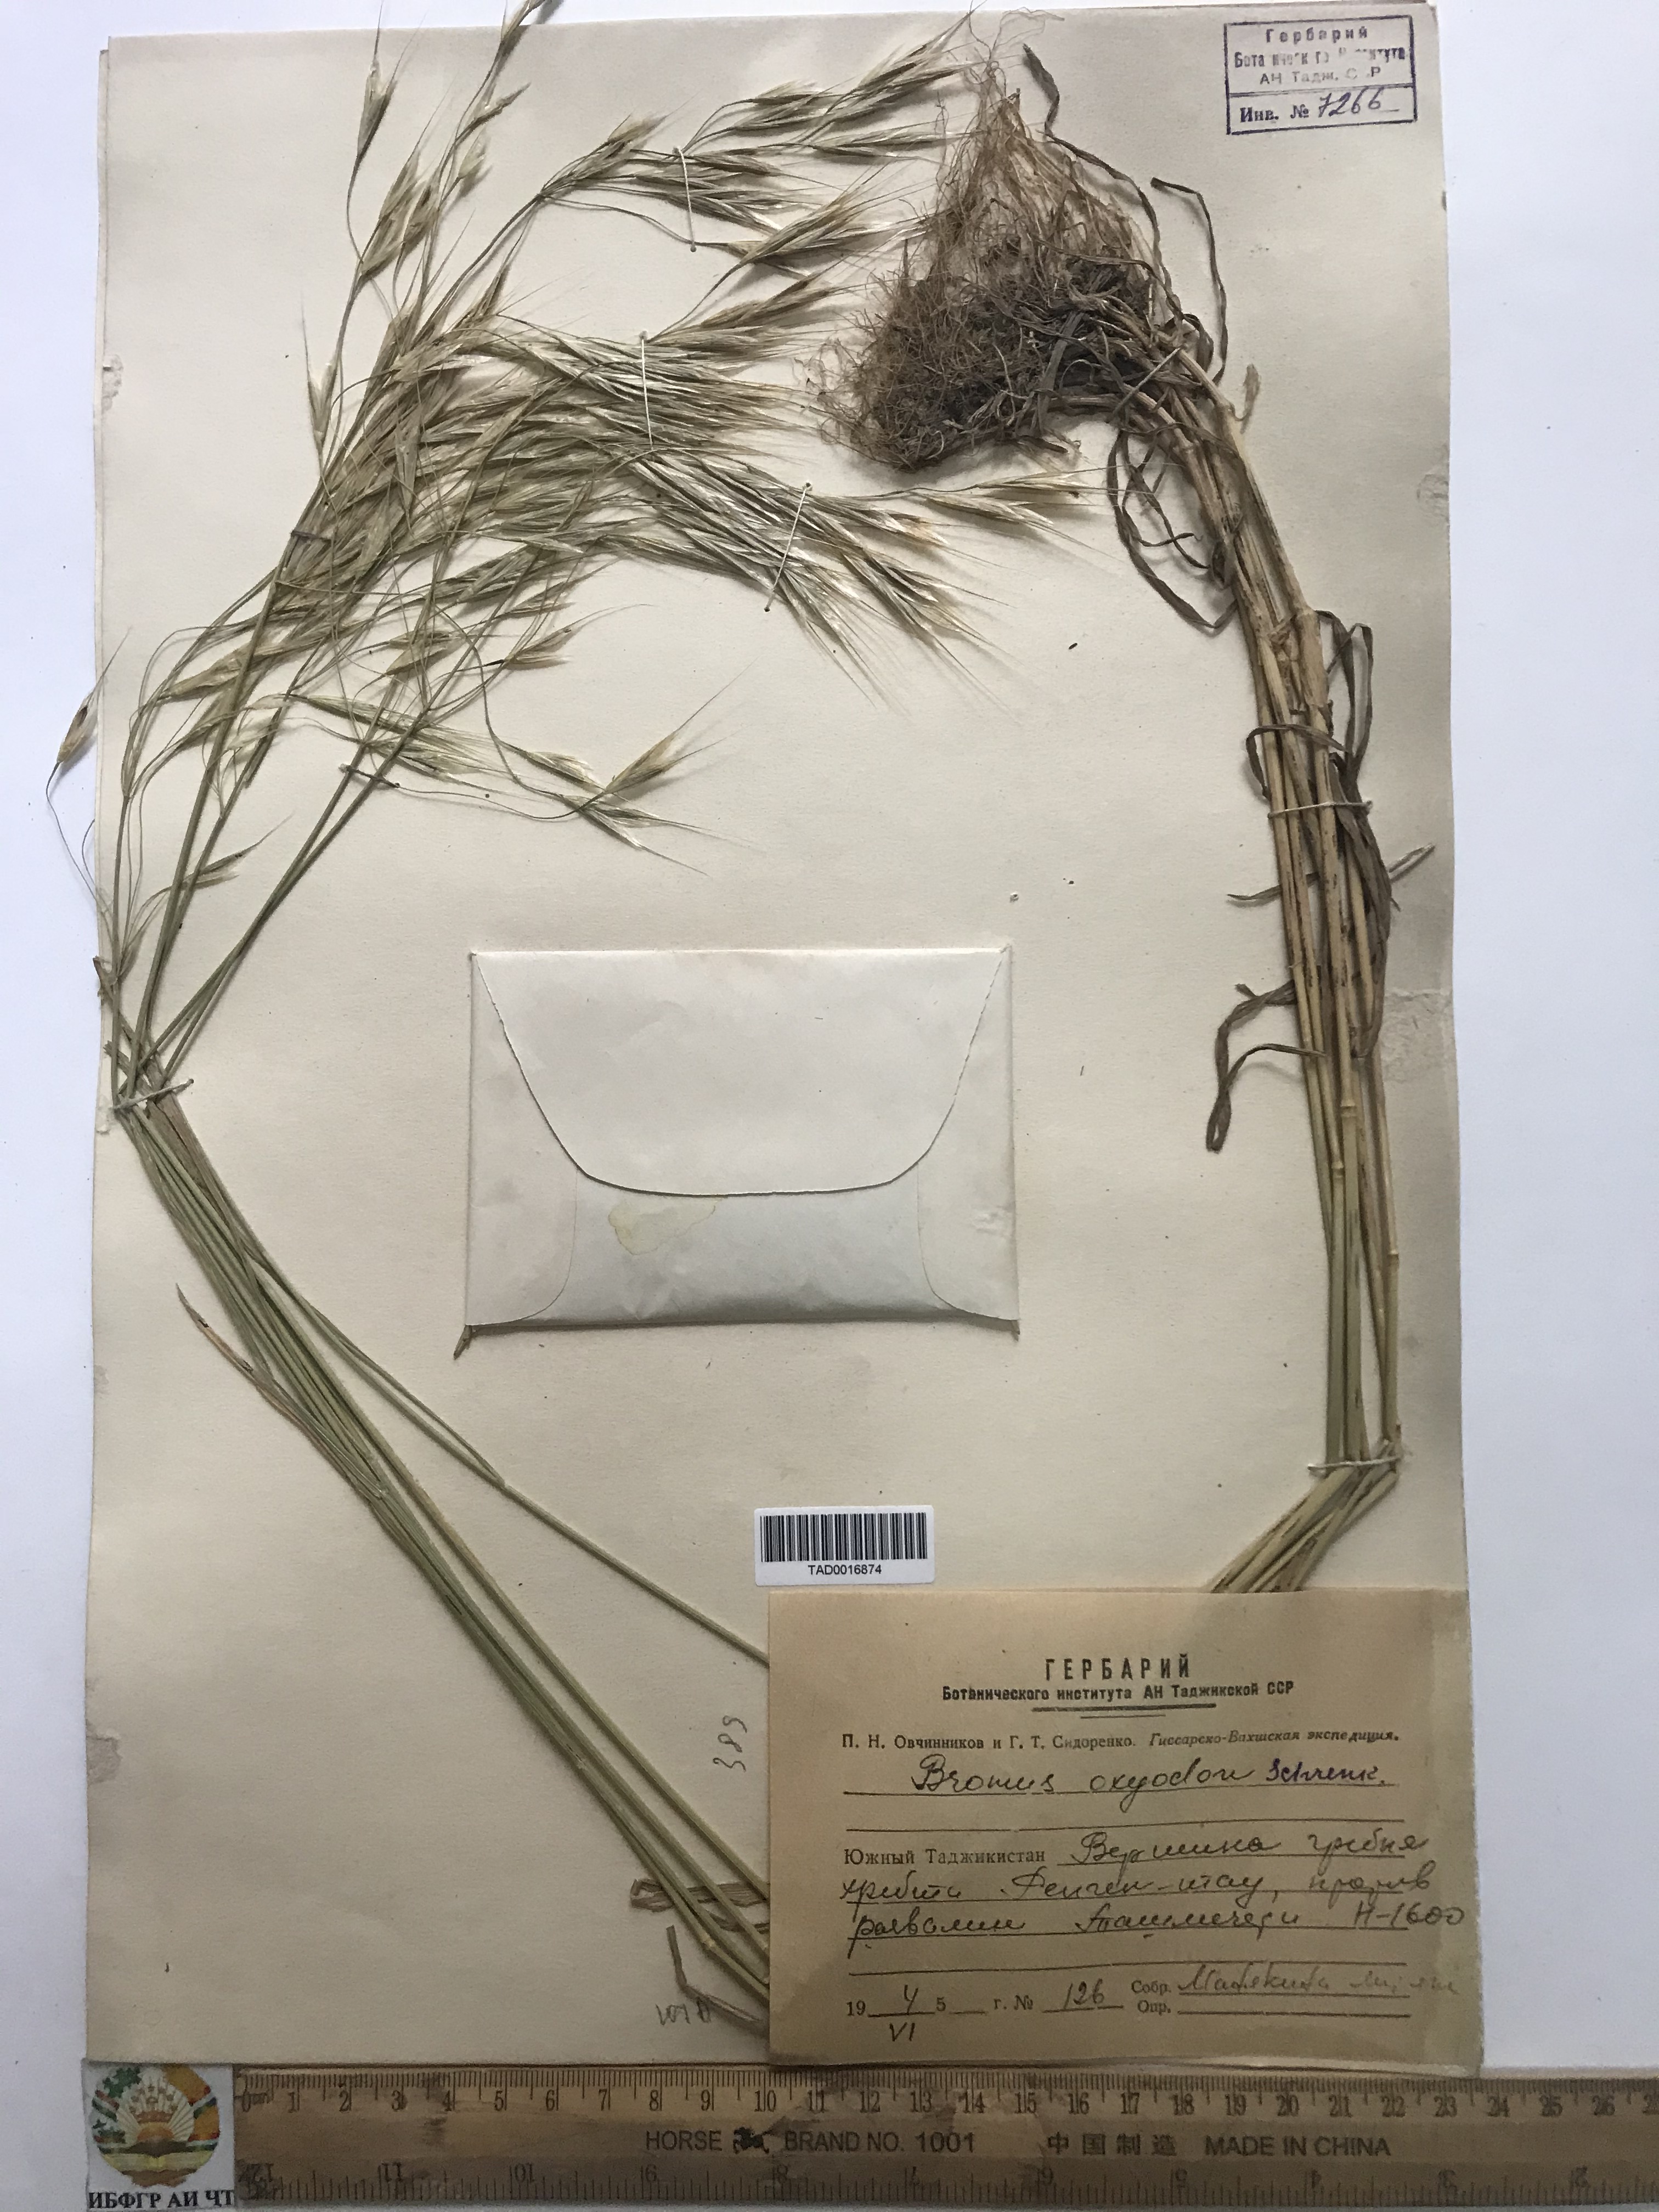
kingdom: Plantae
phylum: Tracheophyta
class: Liliopsida
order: Poales
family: Poaceae
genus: Bromus
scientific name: Bromus oxyodon
